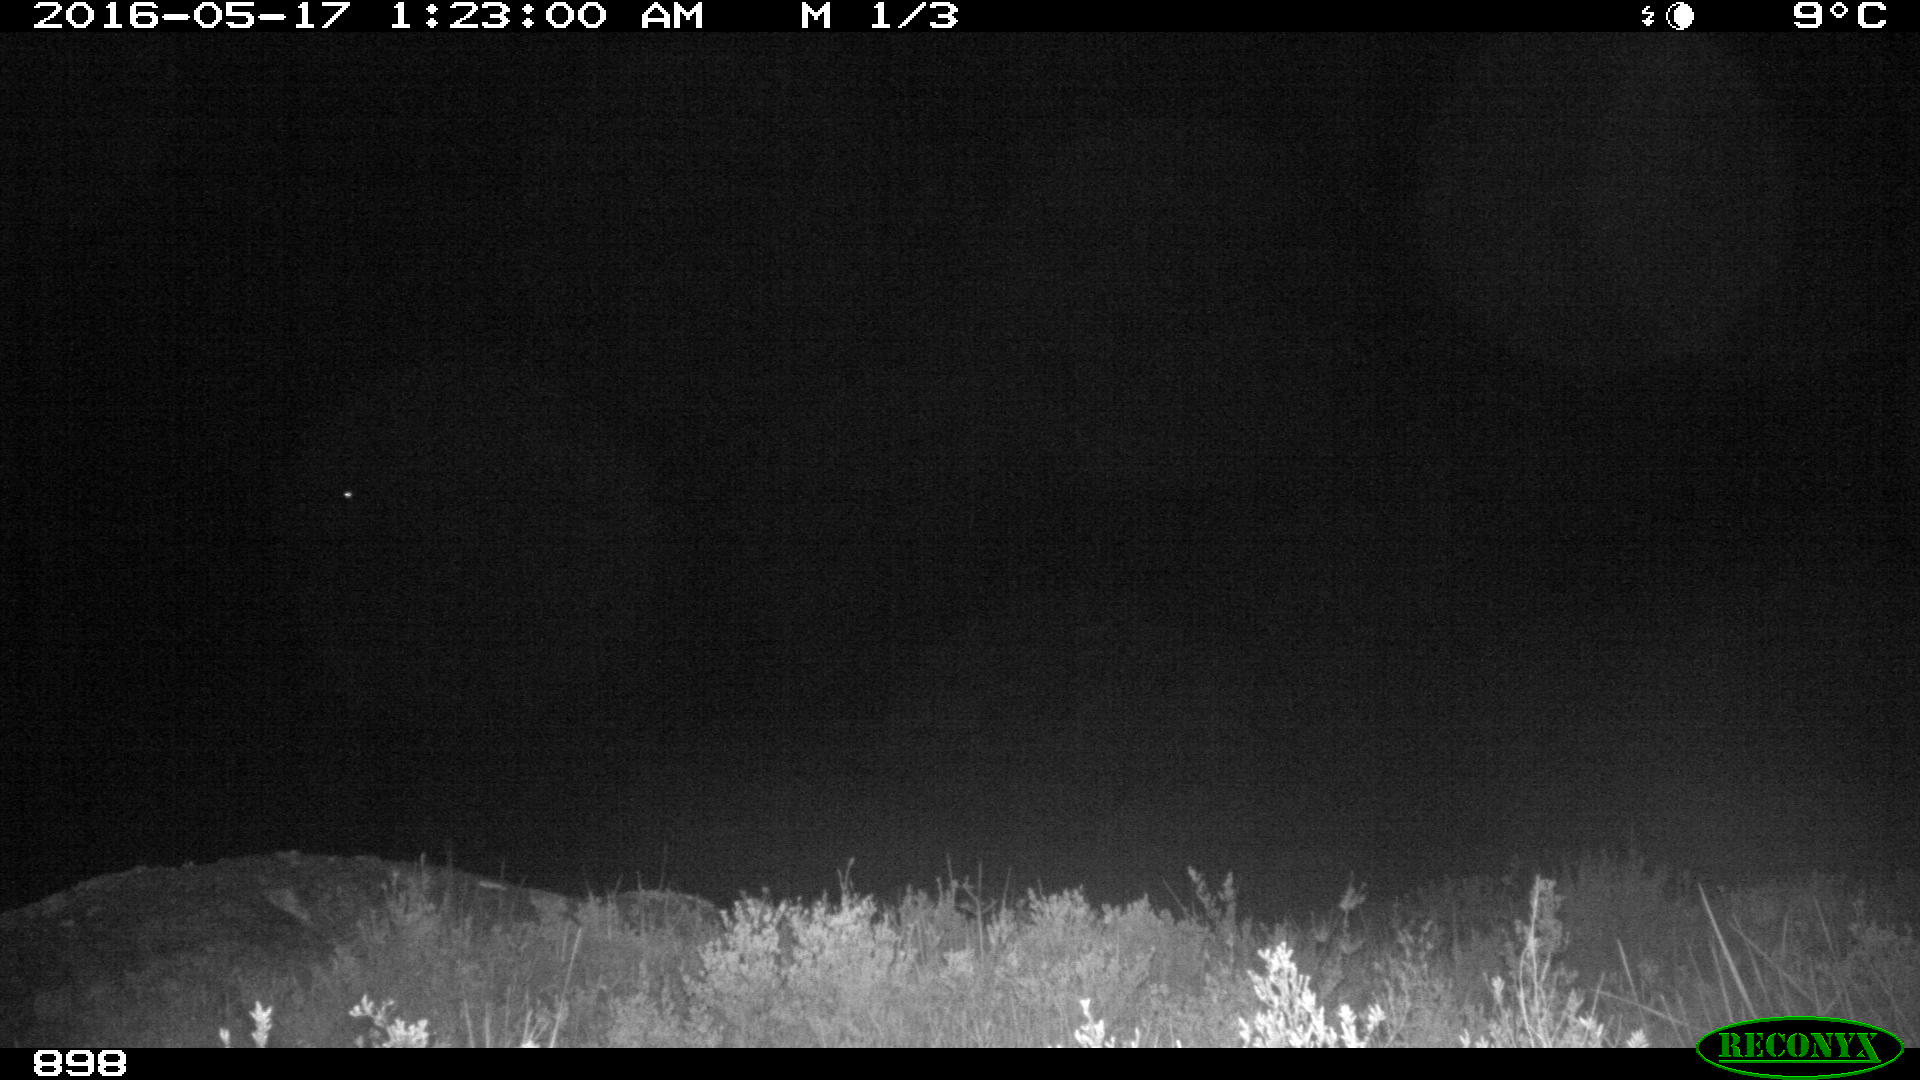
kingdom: Animalia
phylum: Chordata
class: Mammalia
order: Artiodactyla
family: Bovidae
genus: Bos
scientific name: Bos taurus
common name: Domesticated cattle
